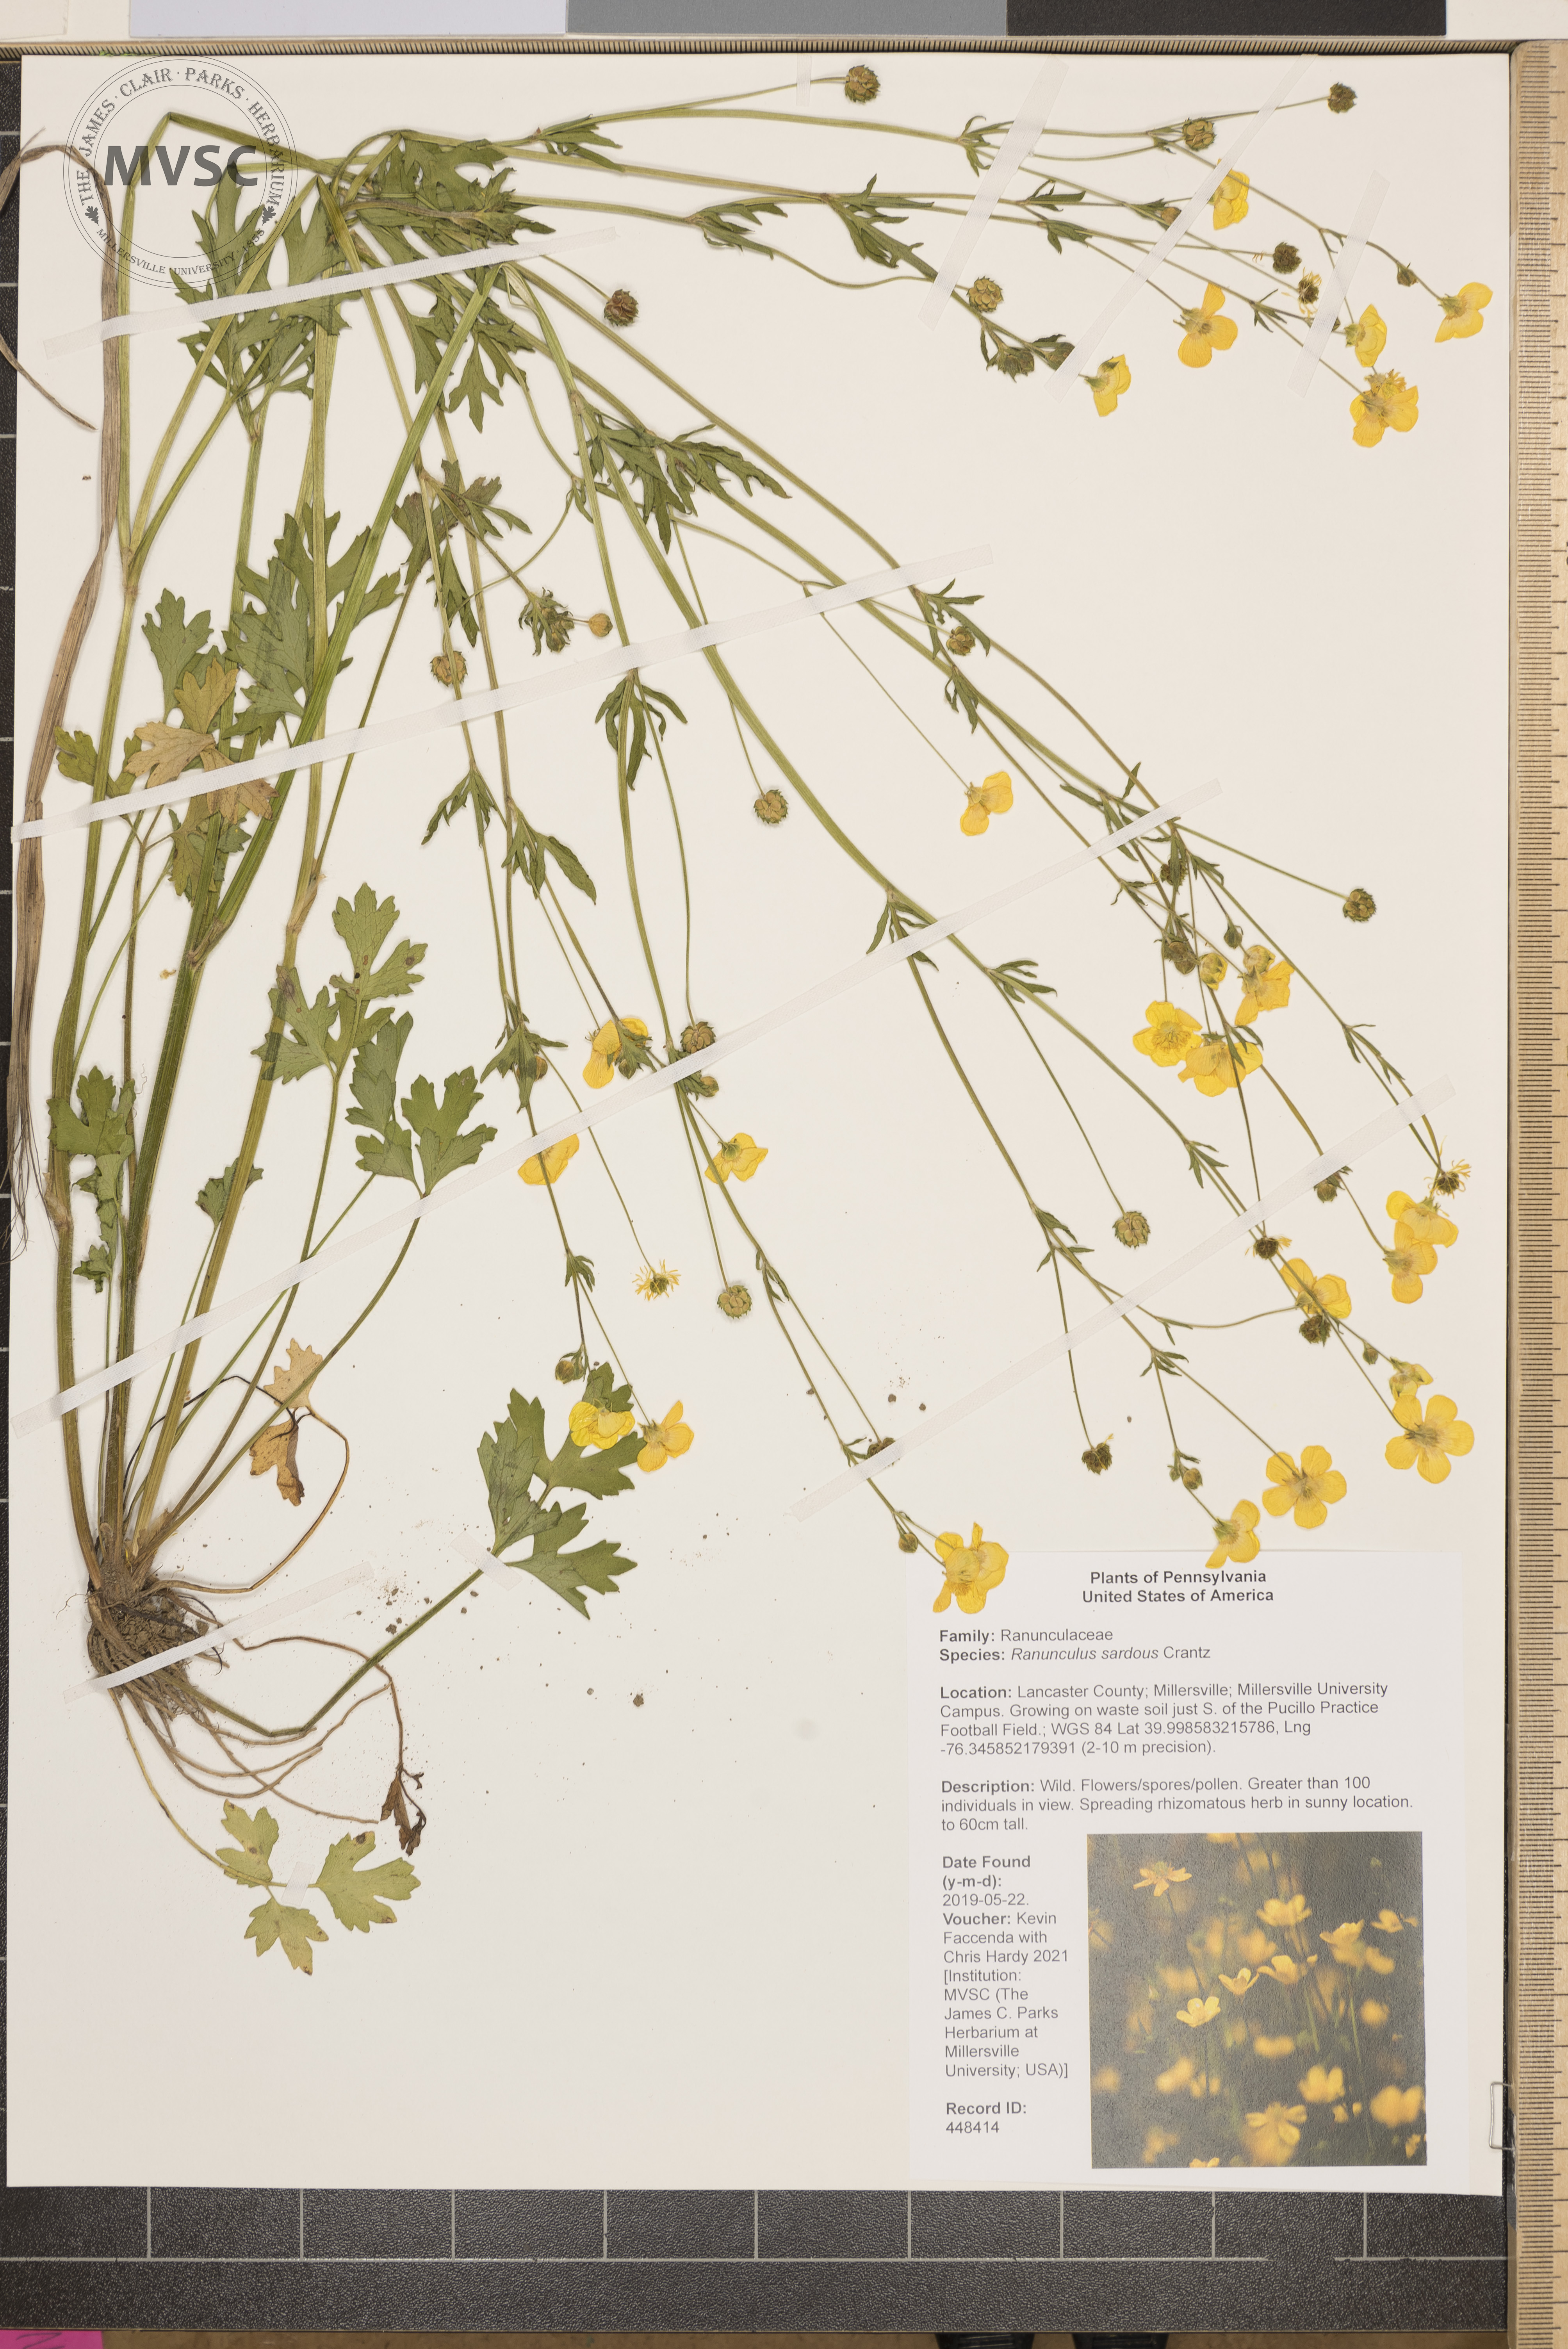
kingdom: Plantae
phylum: Tracheophyta
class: Magnoliopsida
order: Ranunculales
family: Ranunculaceae
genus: Ranunculus
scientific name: Ranunculus sardous
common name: Hairy buttercup
